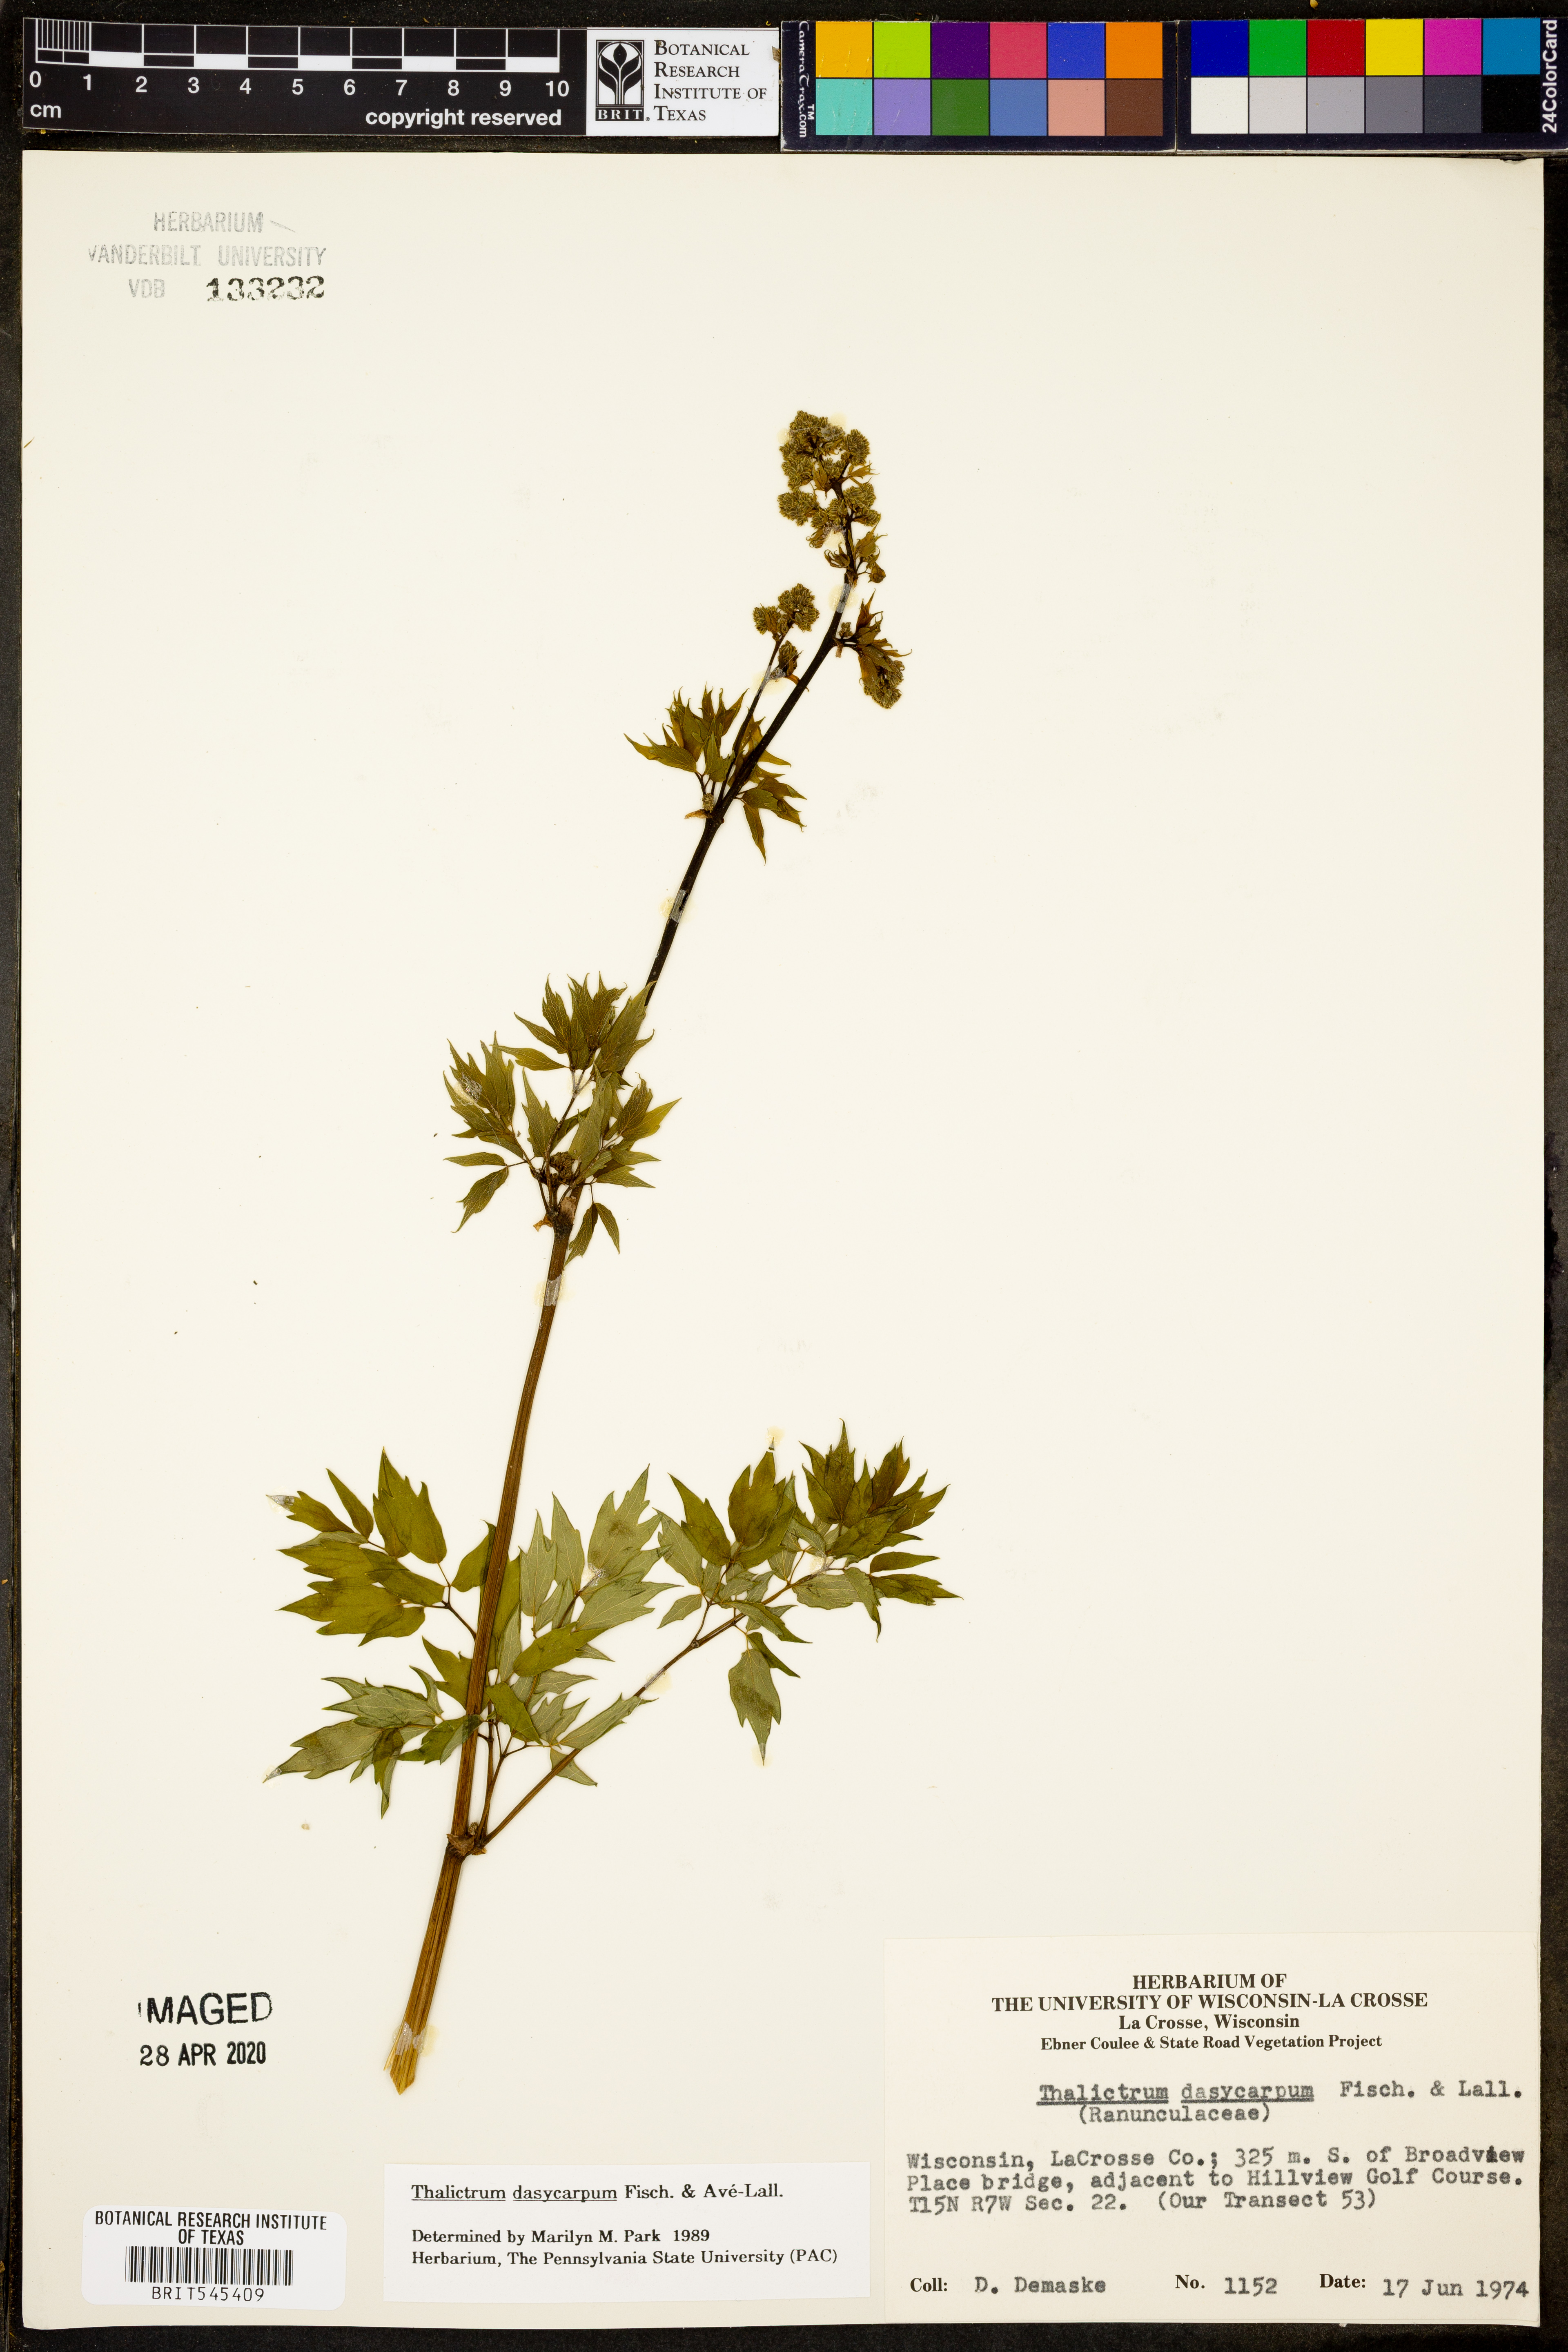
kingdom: Plantae
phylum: Tracheophyta
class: Magnoliopsida
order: Ranunculales
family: Ranunculaceae
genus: Thalictrum
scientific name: Thalictrum dasycarpum
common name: Purple meadow-rue
